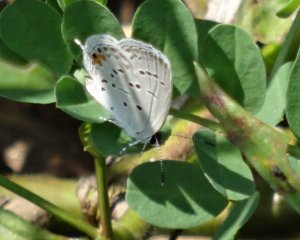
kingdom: Animalia
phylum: Arthropoda
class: Insecta
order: Lepidoptera
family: Lycaenidae
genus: Elkalyce
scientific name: Elkalyce comyntas
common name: Eastern Tailed-Blue
